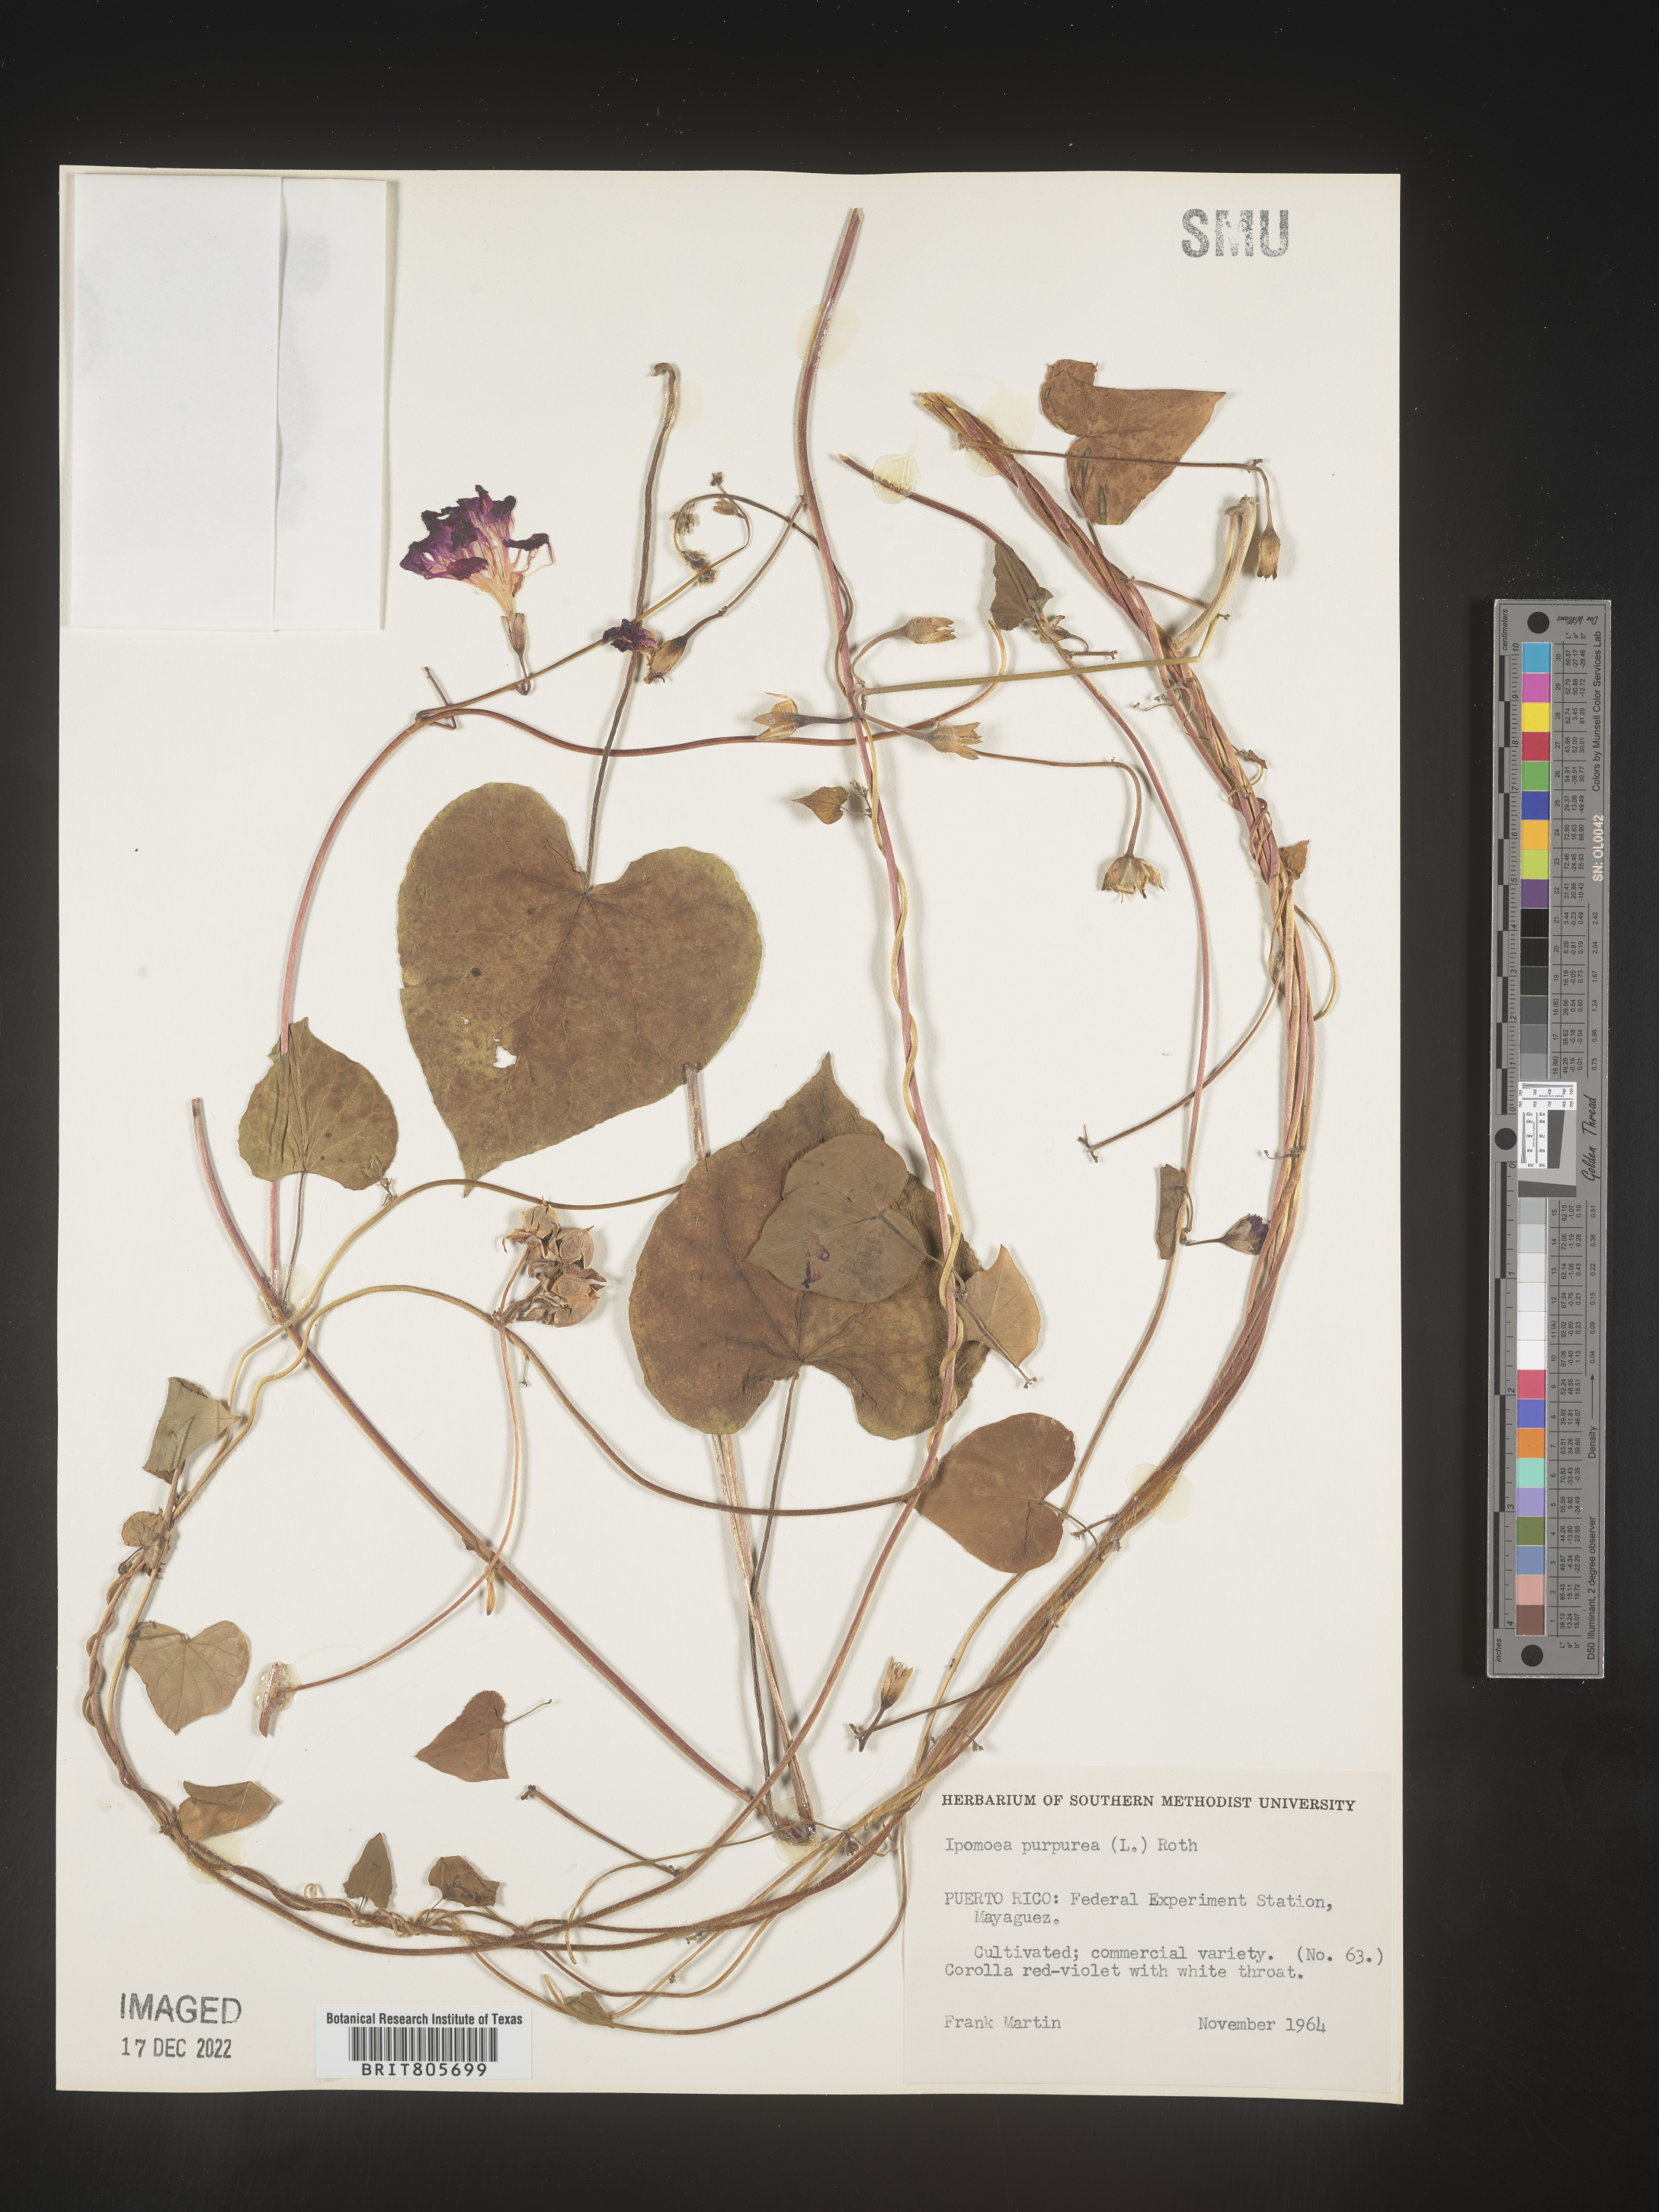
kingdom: Plantae
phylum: Tracheophyta
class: Magnoliopsida
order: Solanales
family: Convolvulaceae
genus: Ipomoea
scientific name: Ipomoea purpurea
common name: Common morning-glory
